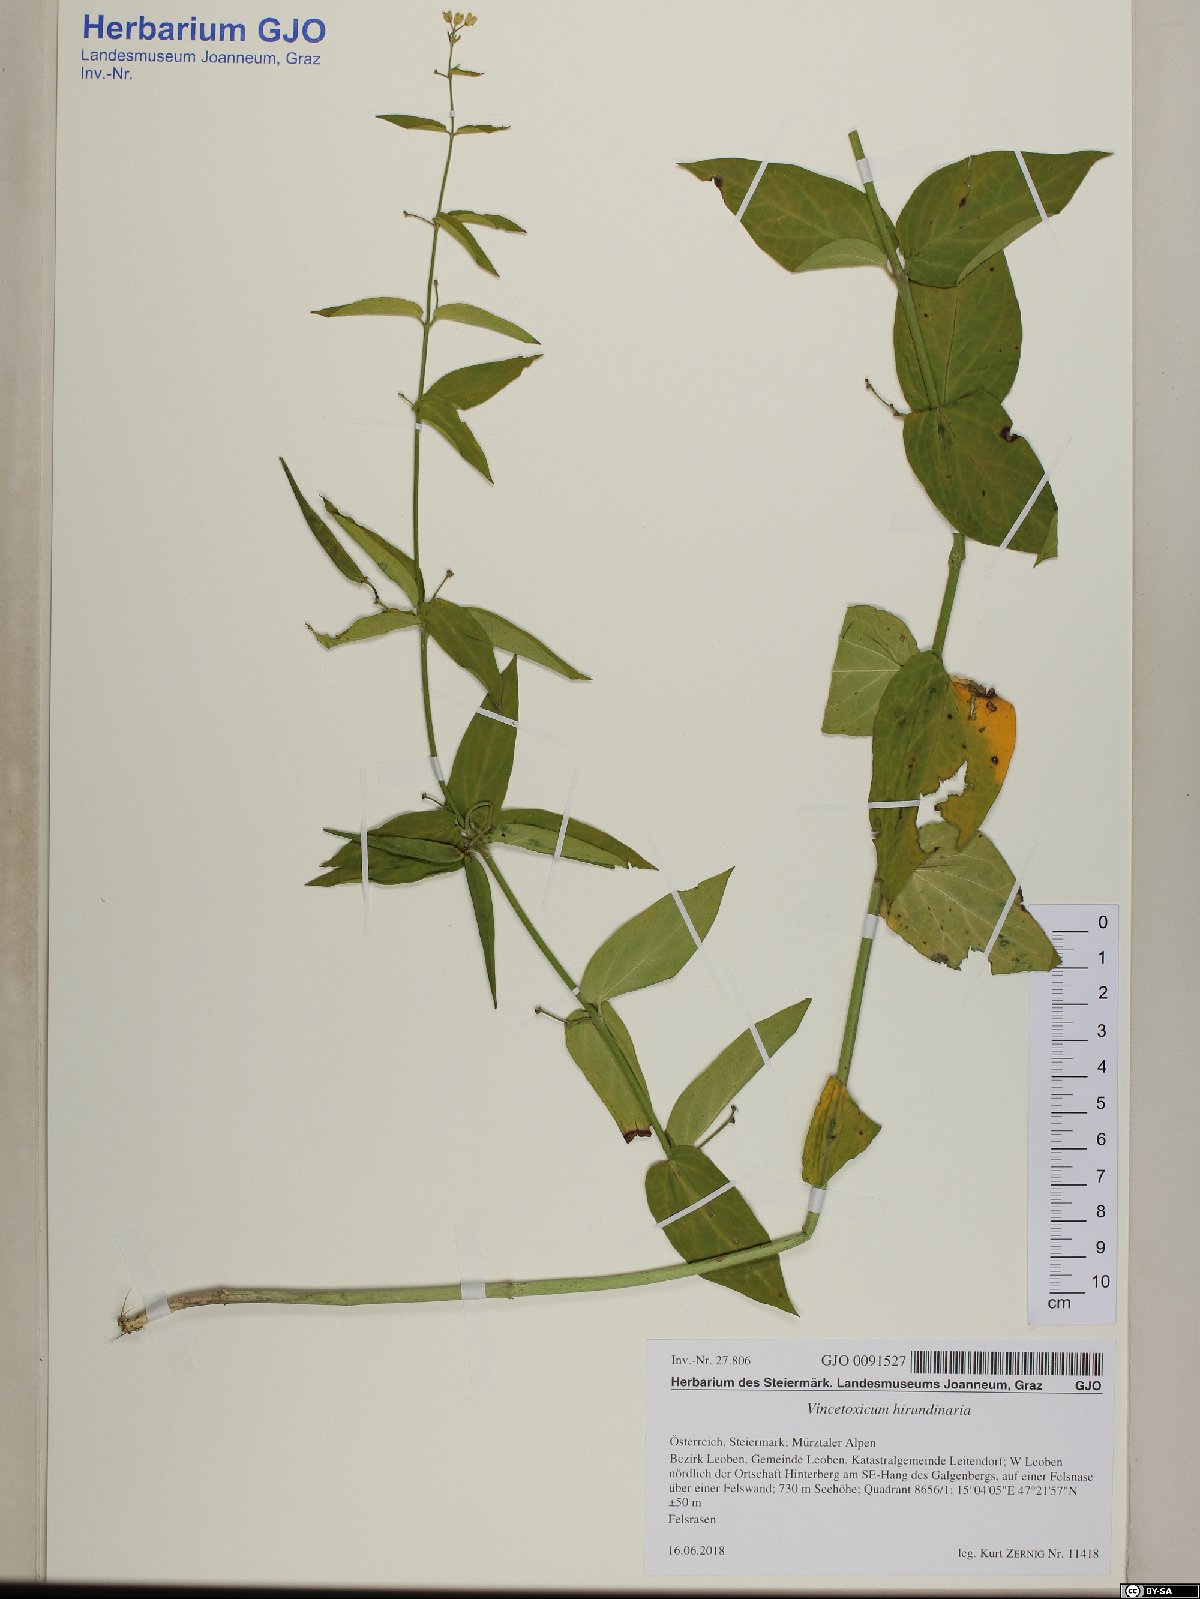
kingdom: Plantae
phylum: Tracheophyta
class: Magnoliopsida
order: Gentianales
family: Apocynaceae
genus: Vincetoxicum
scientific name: Vincetoxicum hirundinaria
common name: White swallowwort
